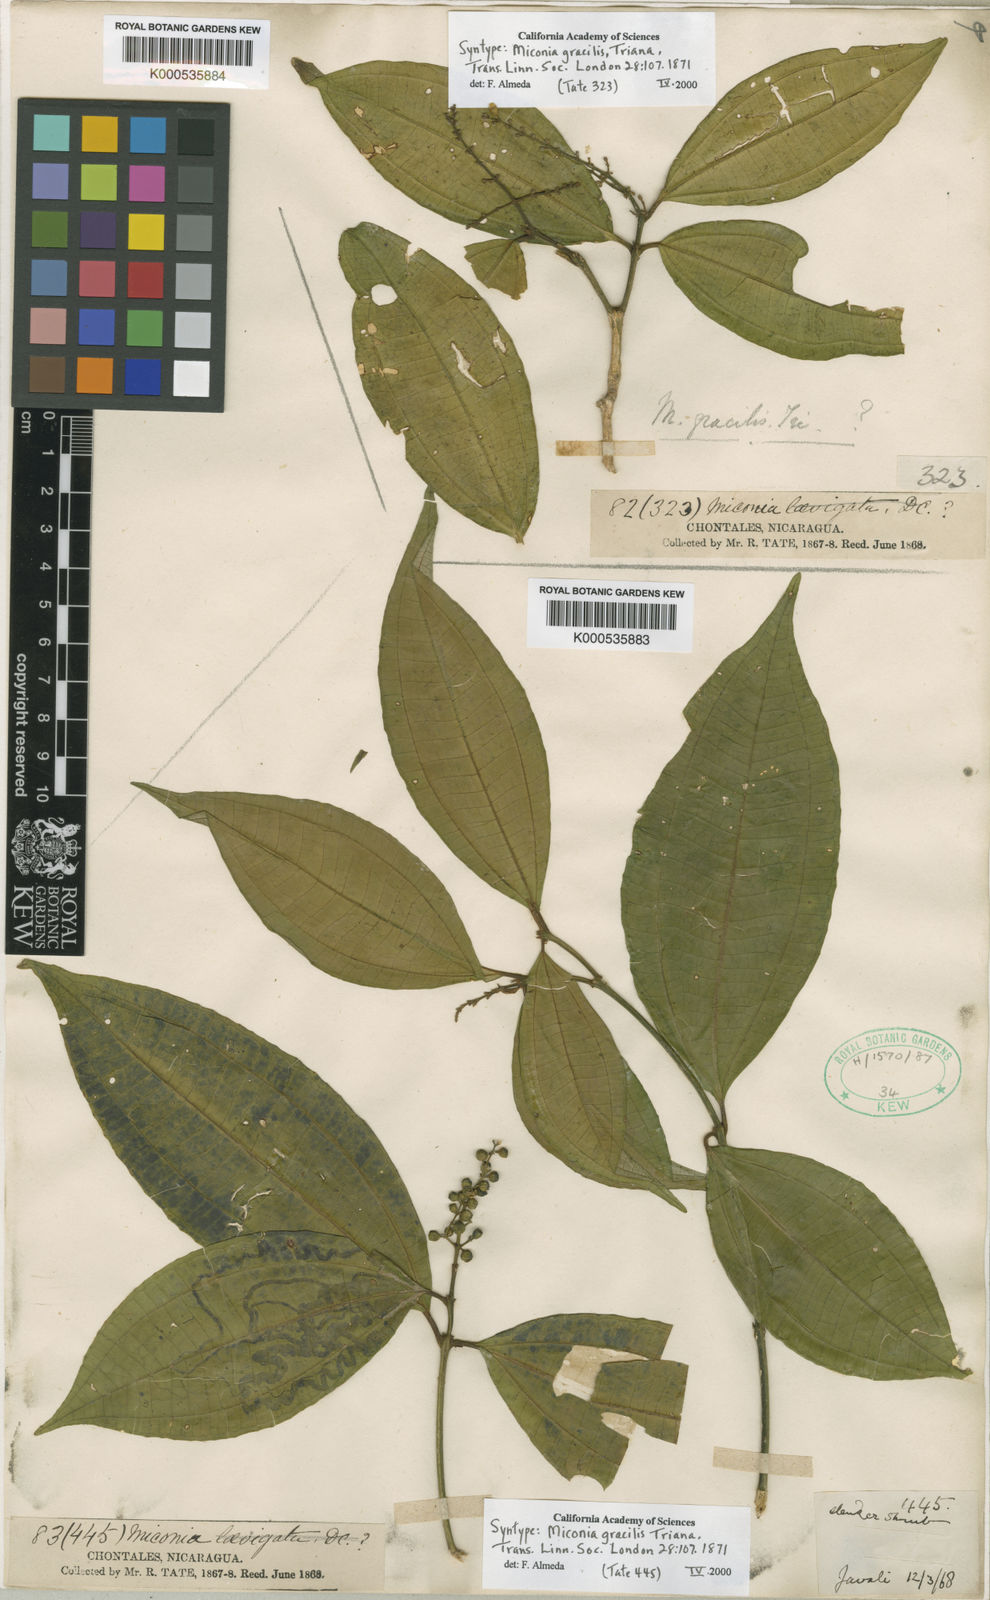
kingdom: Plantae
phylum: Tracheophyta
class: Magnoliopsida
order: Myrtales
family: Melastomataceae
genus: Miconia
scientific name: Miconia gracilis
